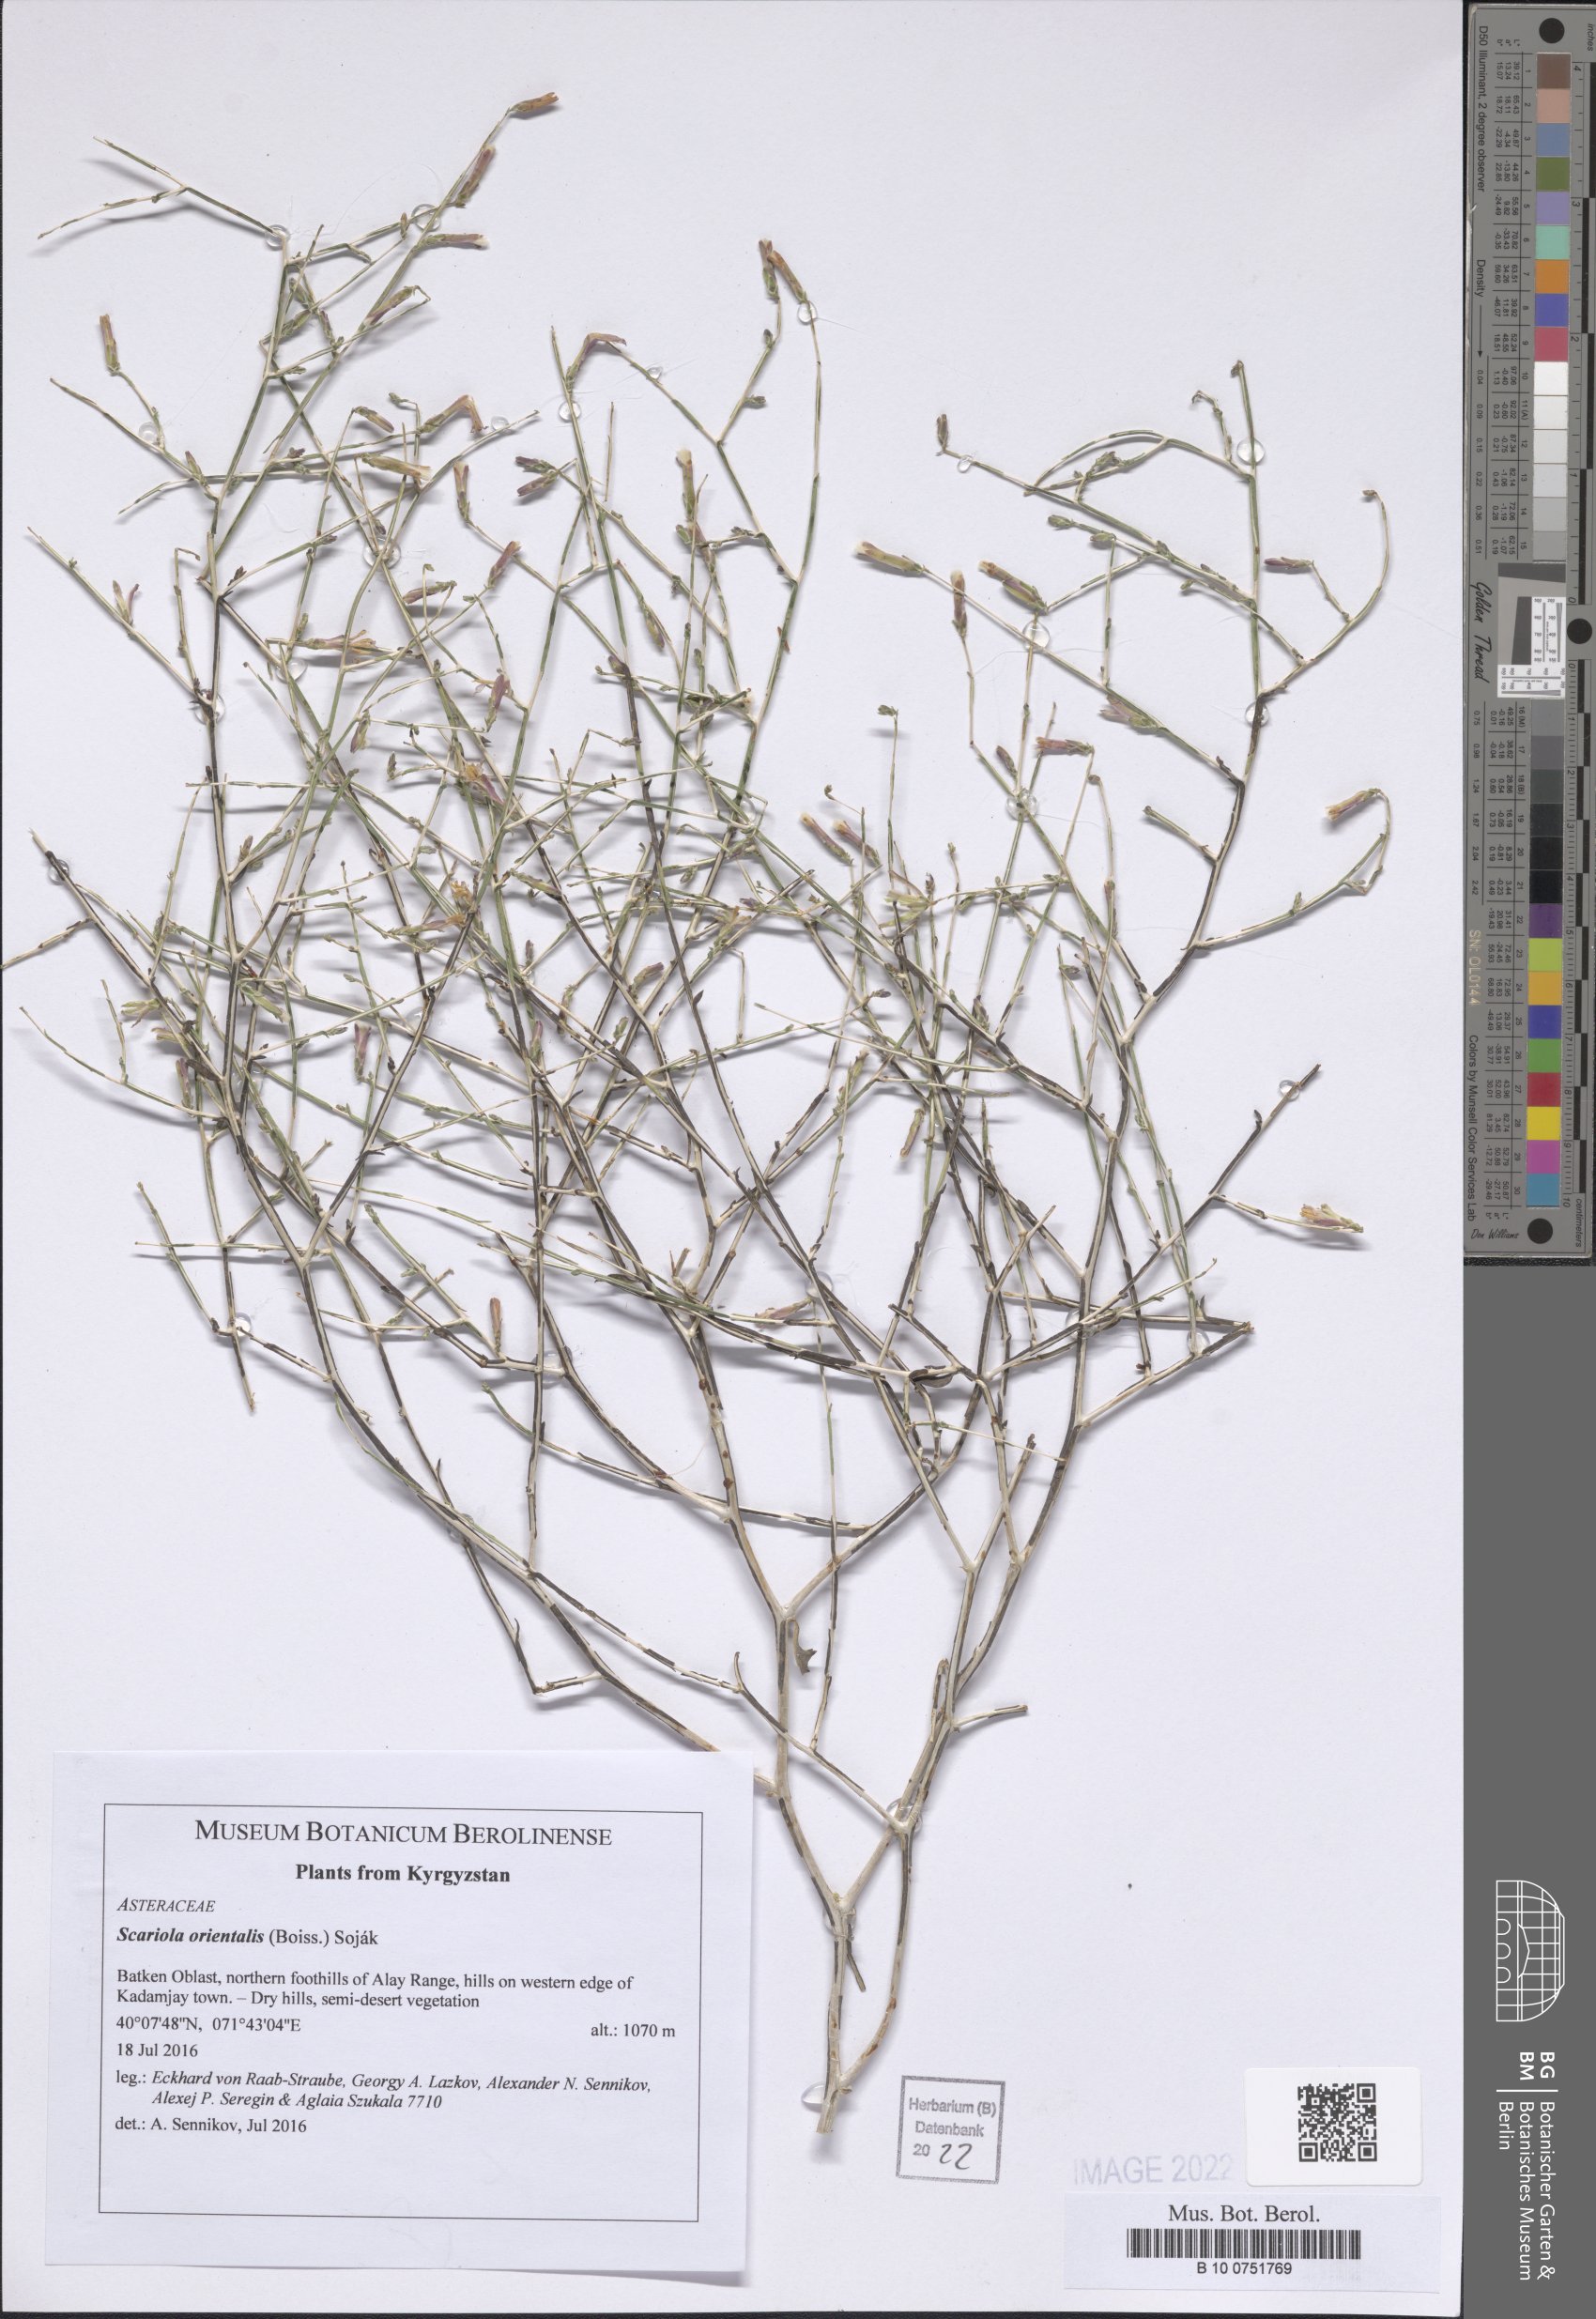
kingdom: Plantae
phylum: Tracheophyta
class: Magnoliopsida
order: Asterales
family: Asteraceae
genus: Lactuca
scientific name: Lactuca orientalis
